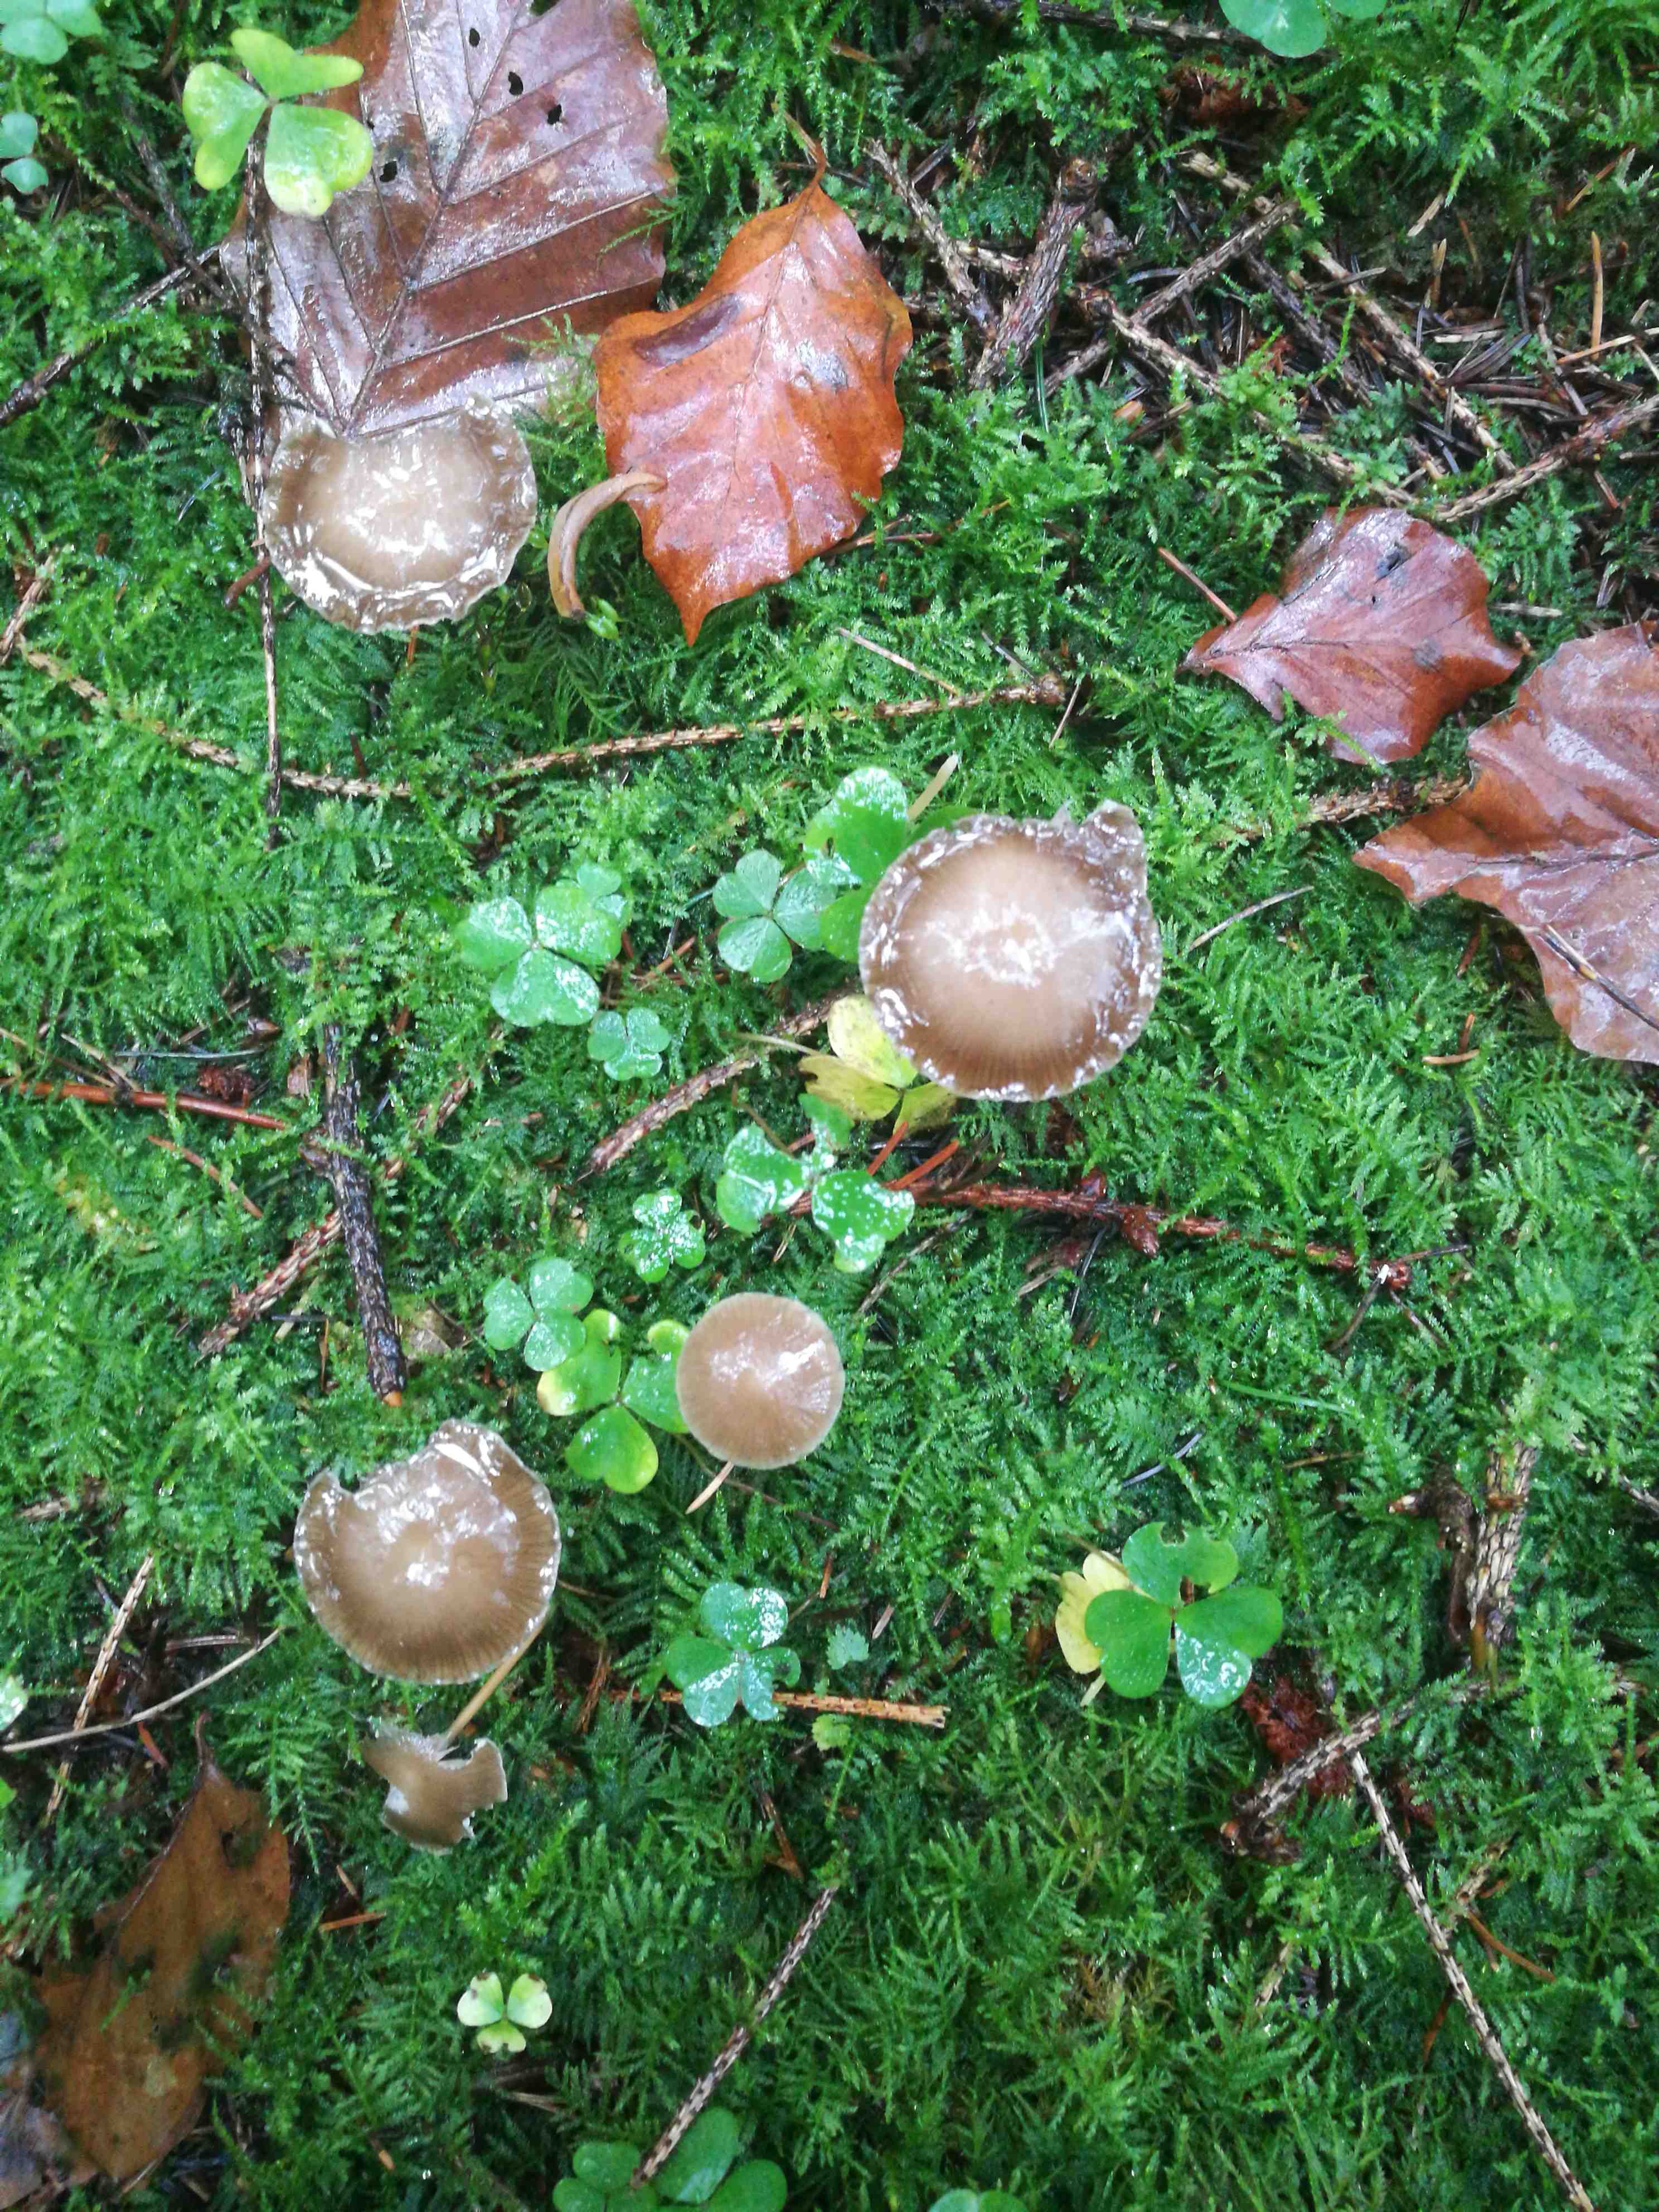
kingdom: Fungi
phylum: Basidiomycota
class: Agaricomycetes
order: Agaricales
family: Physalacriaceae
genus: Strobilurus
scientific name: Strobilurus esculentus
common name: gran-koglehat
